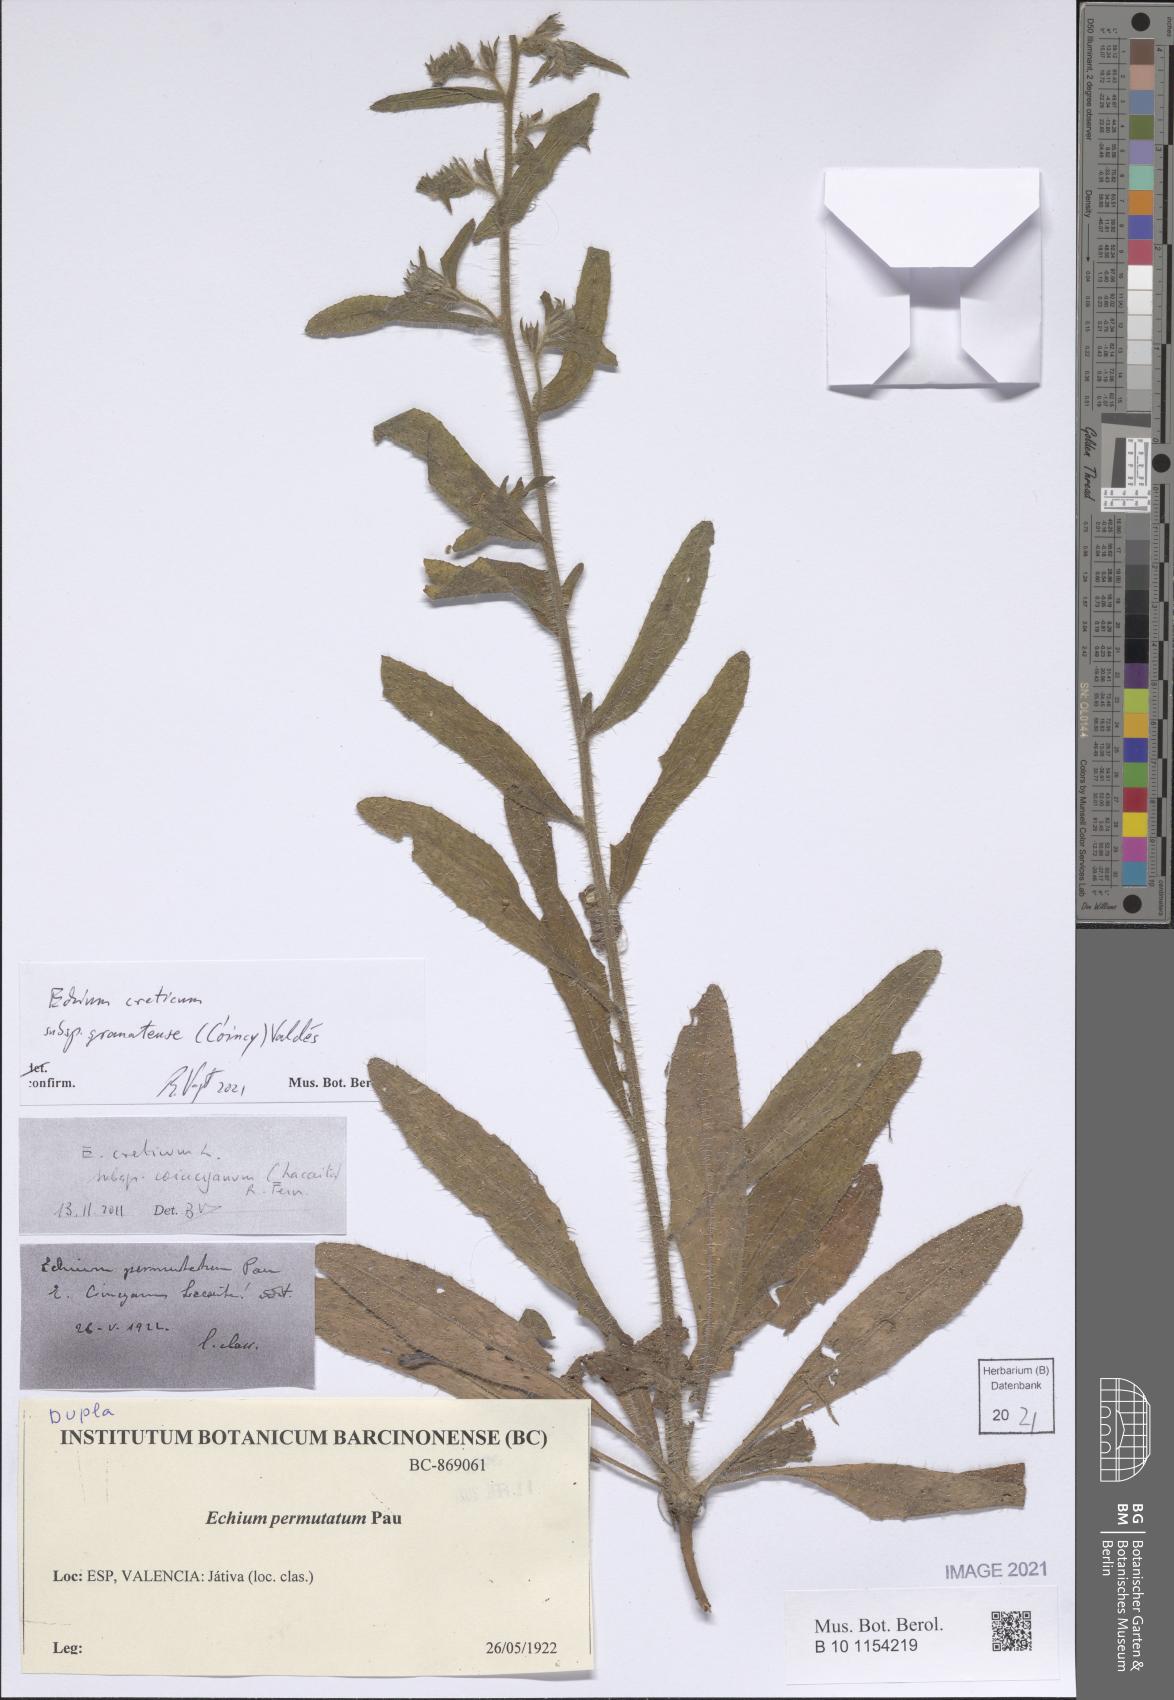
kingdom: Plantae
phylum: Tracheophyta
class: Magnoliopsida
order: Boraginales
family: Boraginaceae
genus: Echium
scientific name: Echium creticum
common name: Cretan viper's bugloss
